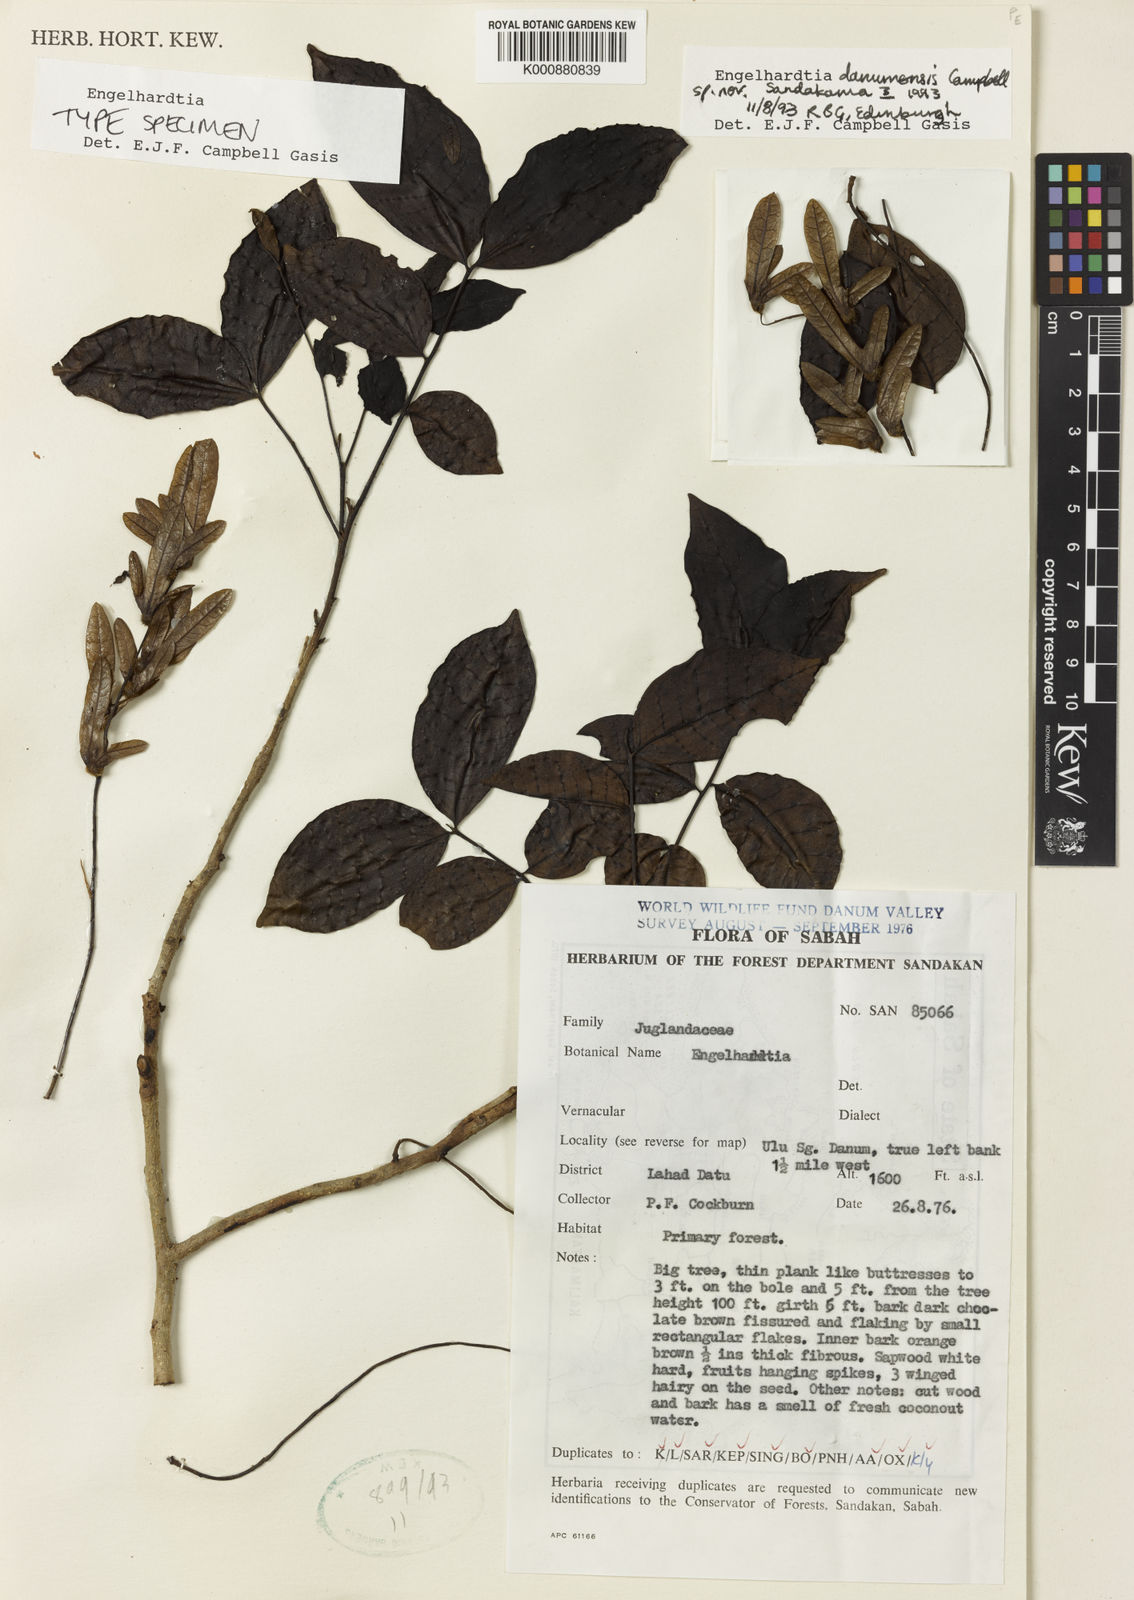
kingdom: Plantae
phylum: Tracheophyta
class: Magnoliopsida
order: Fagales
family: Juglandaceae
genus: Engelhardia
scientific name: Engelhardia danumensis
